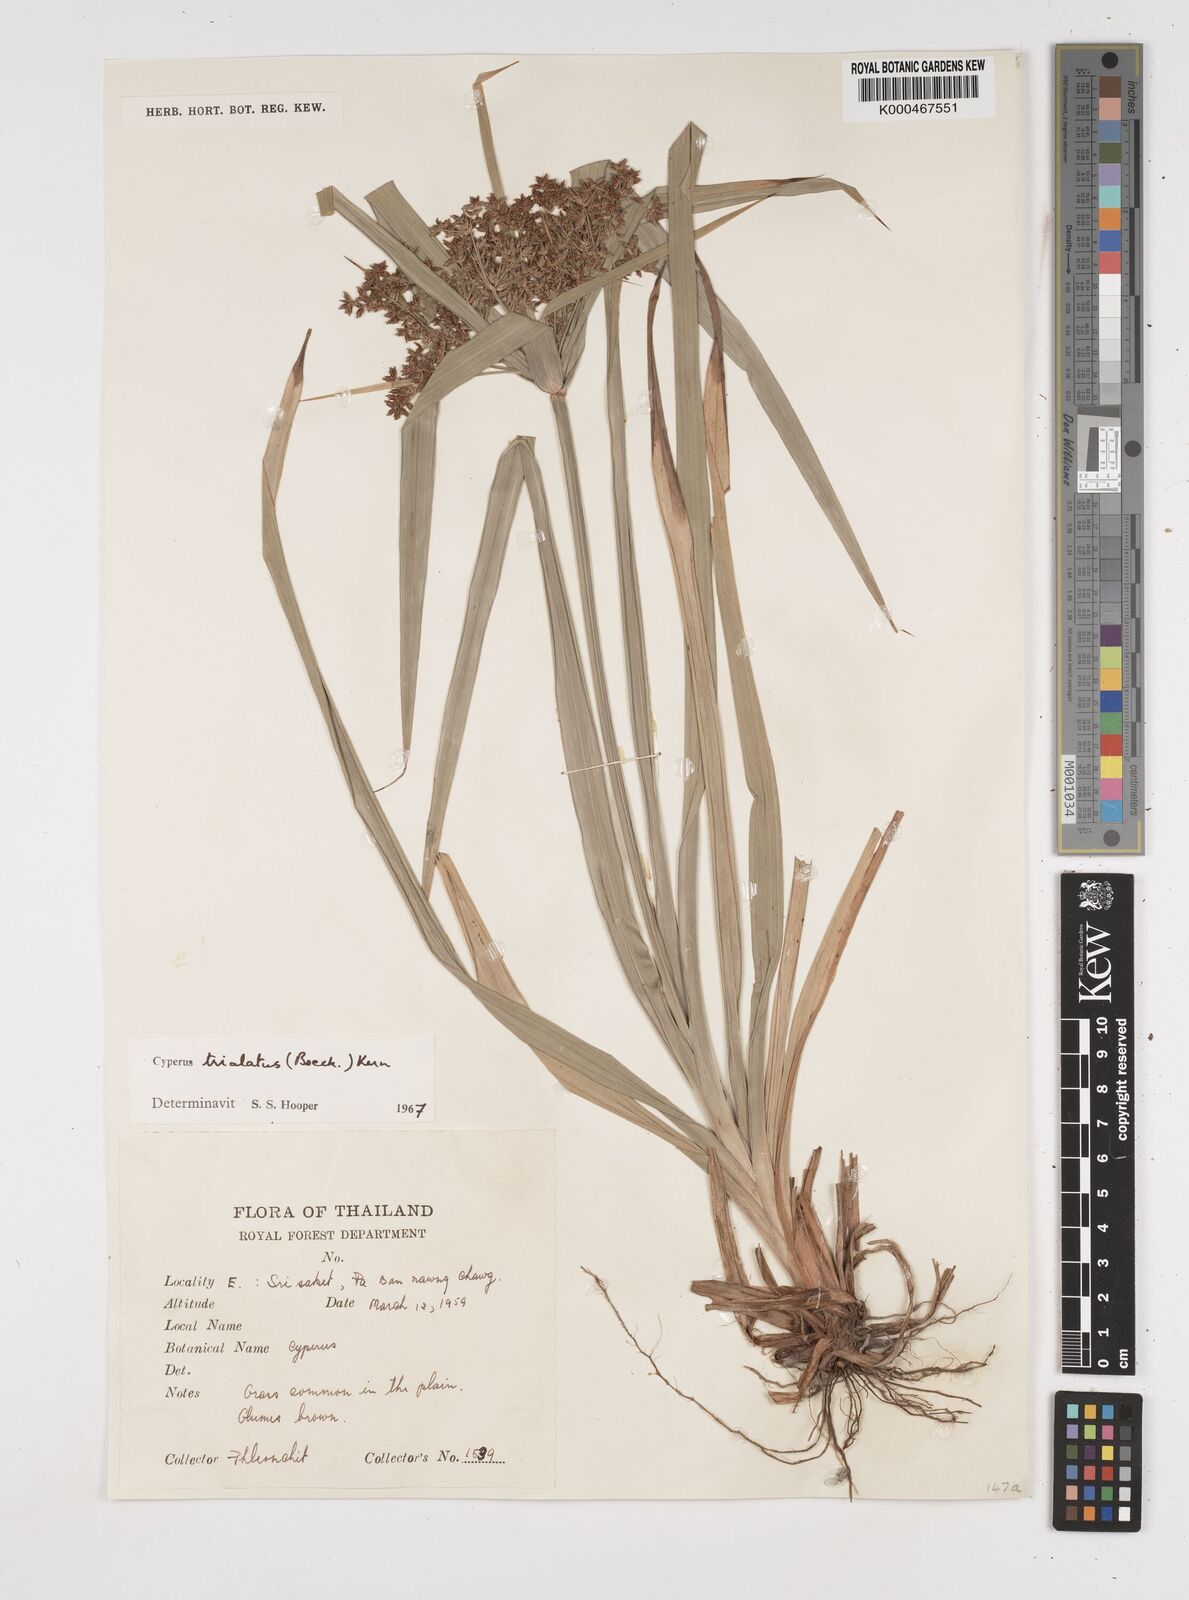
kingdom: Plantae
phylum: Tracheophyta
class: Liliopsida
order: Poales
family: Cyperaceae
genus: Cyperus
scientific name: Cyperus trialatus
